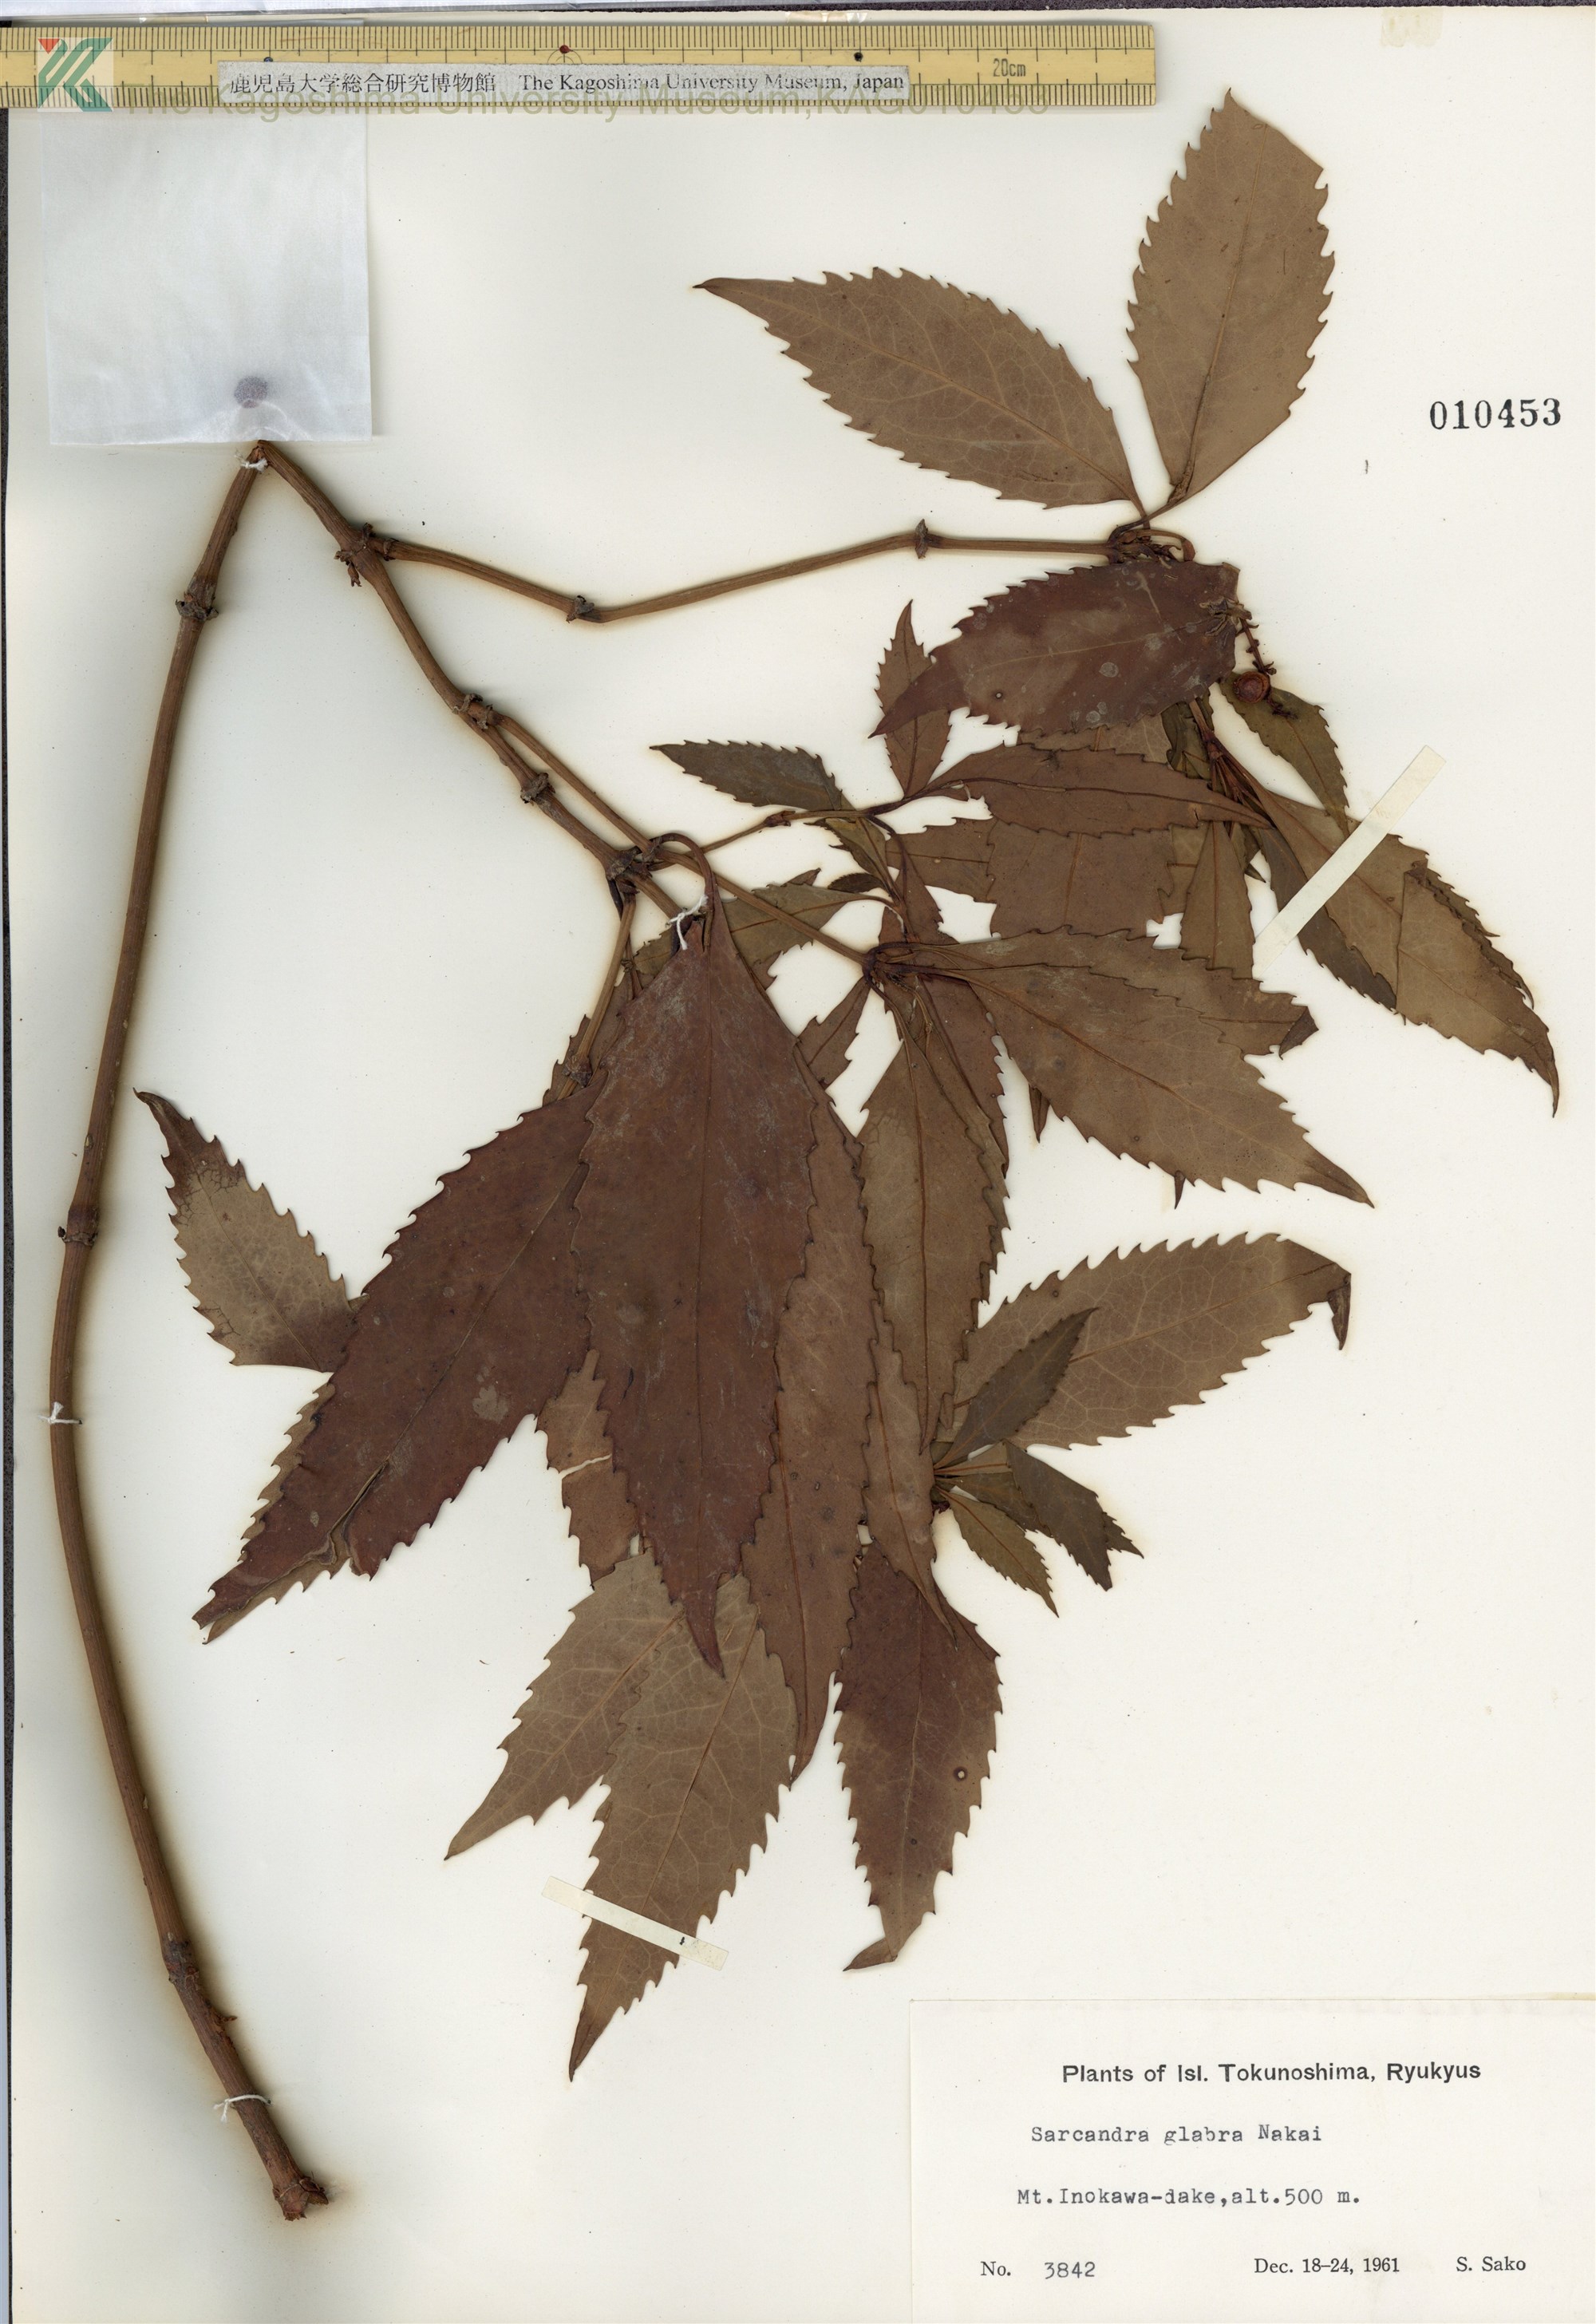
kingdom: Plantae
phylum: Tracheophyta
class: Magnoliopsida
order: Chloranthales
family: Chloranthaceae
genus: Sarcandra
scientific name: Sarcandra glabra
